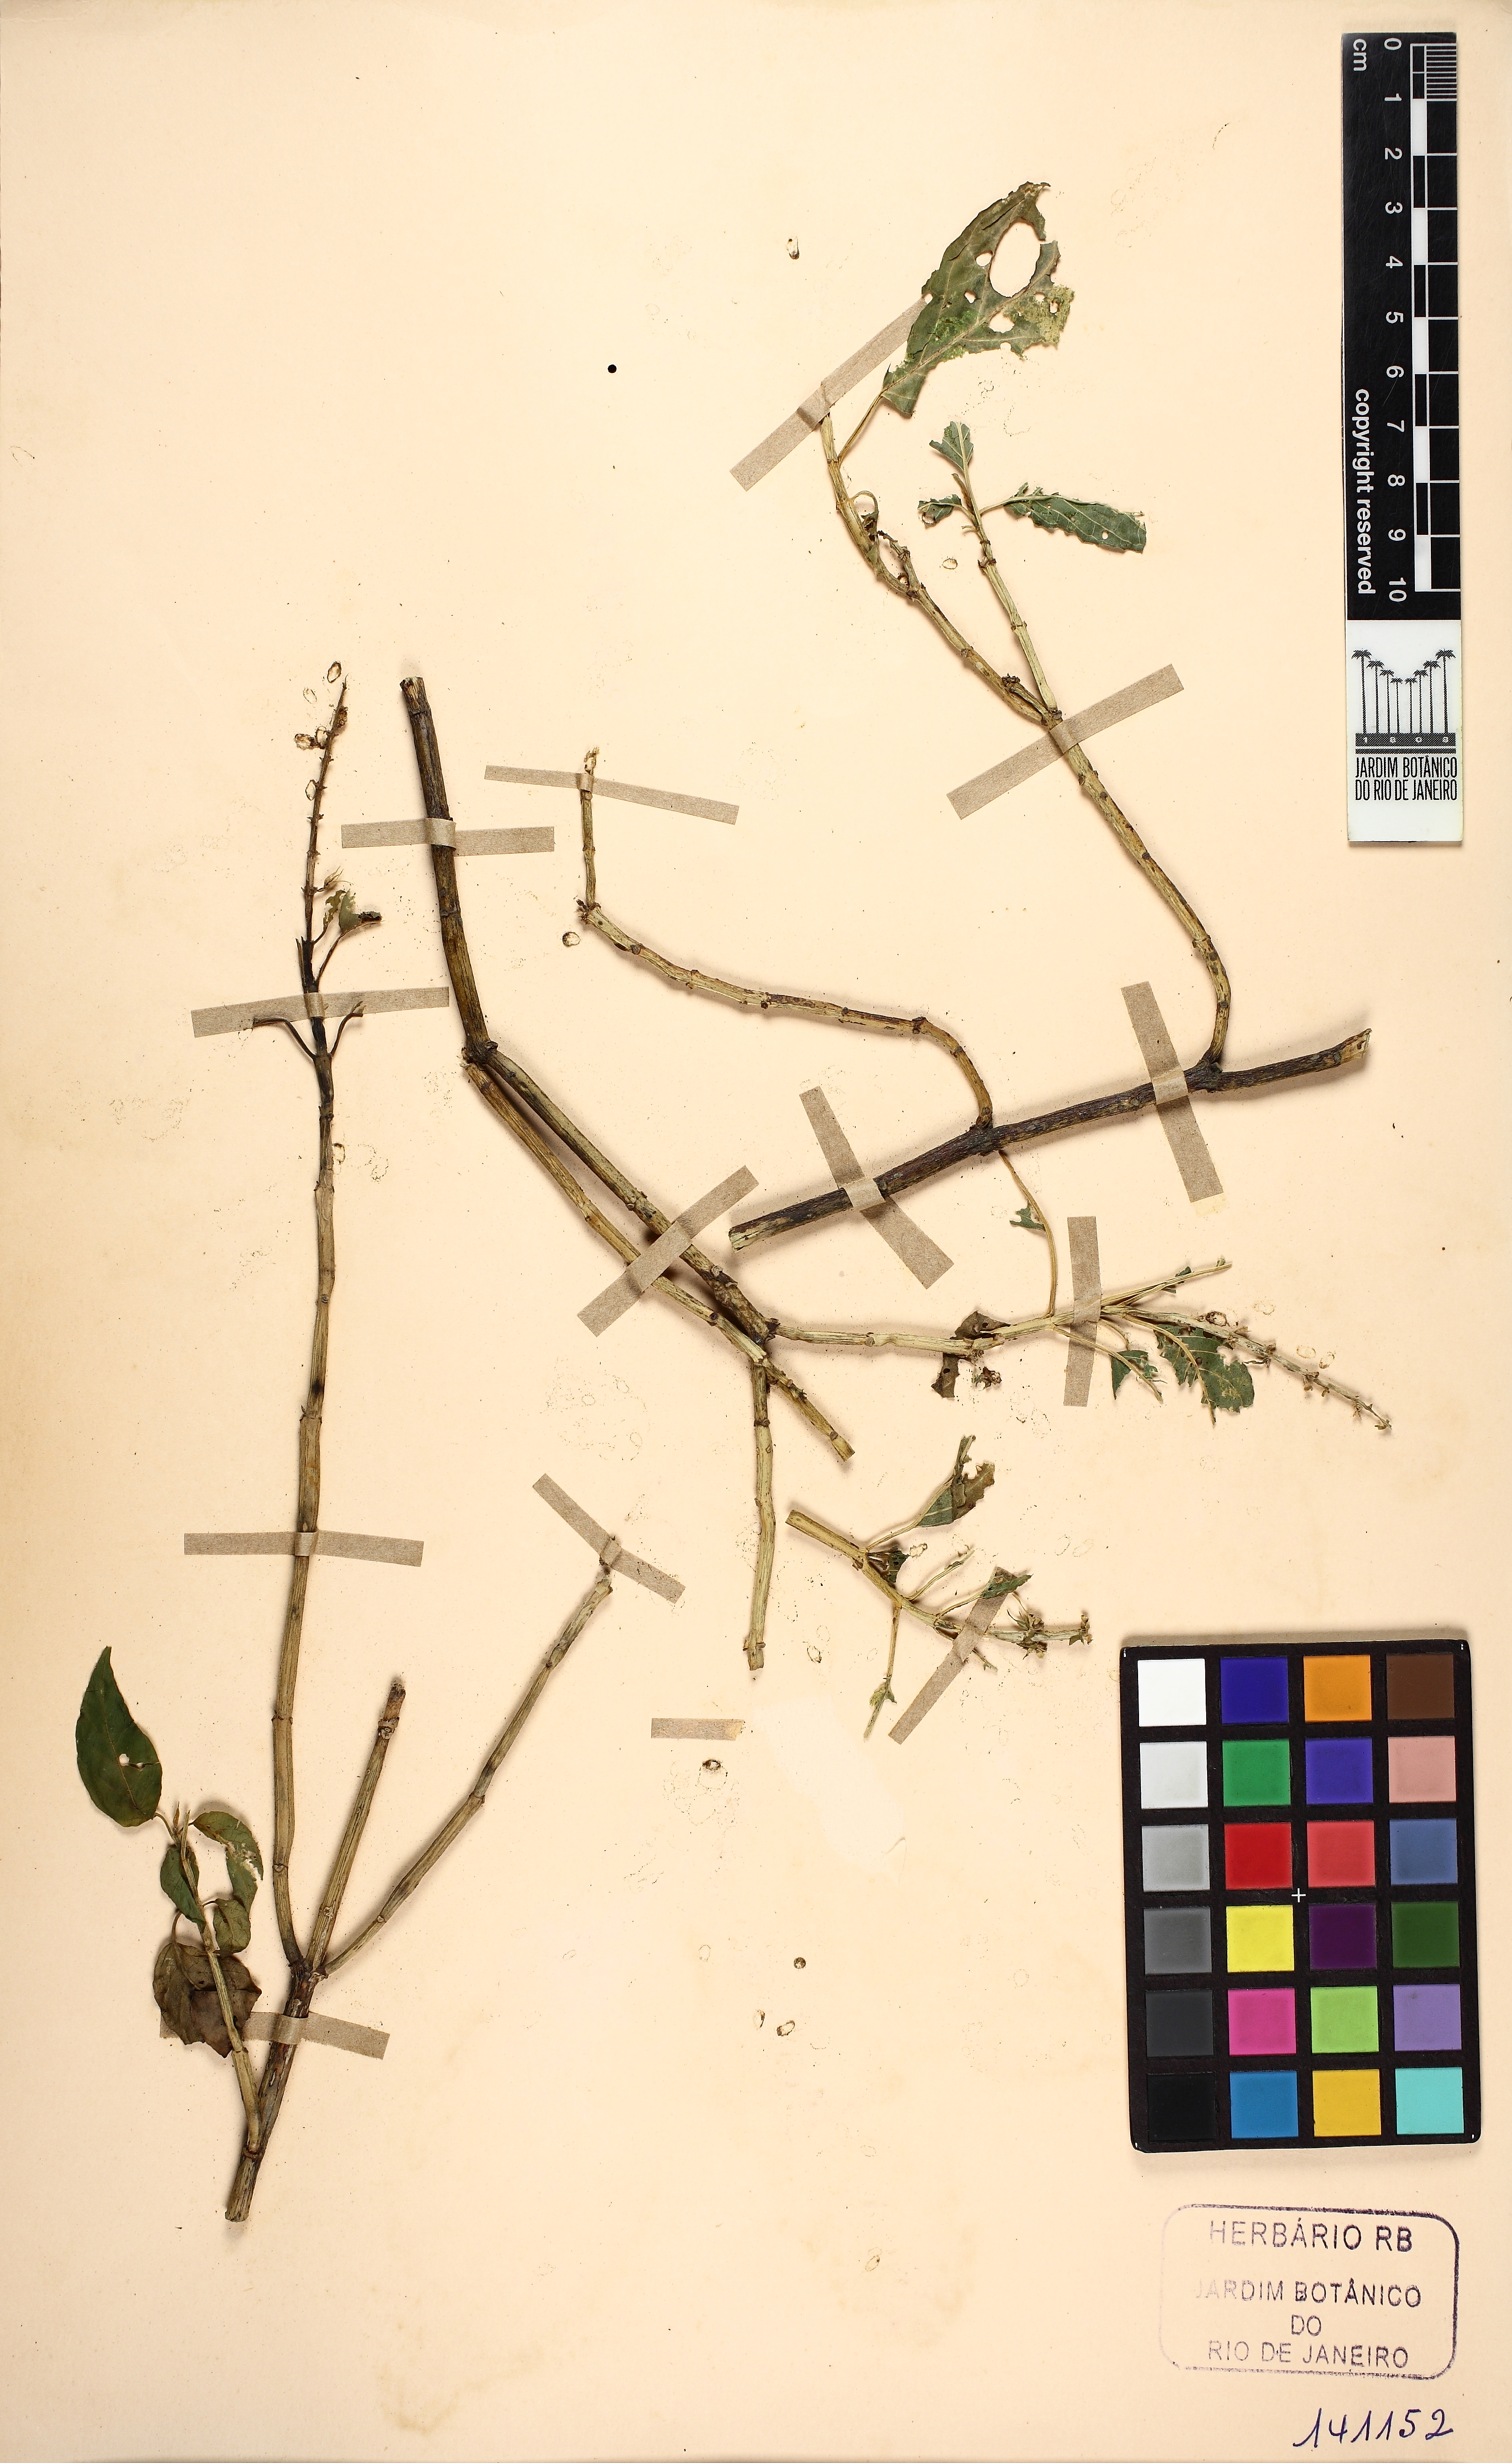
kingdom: Plantae
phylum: Tracheophyta
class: Magnoliopsida
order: Lamiales
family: Acanthaceae
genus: Schaueria
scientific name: Schaueria
